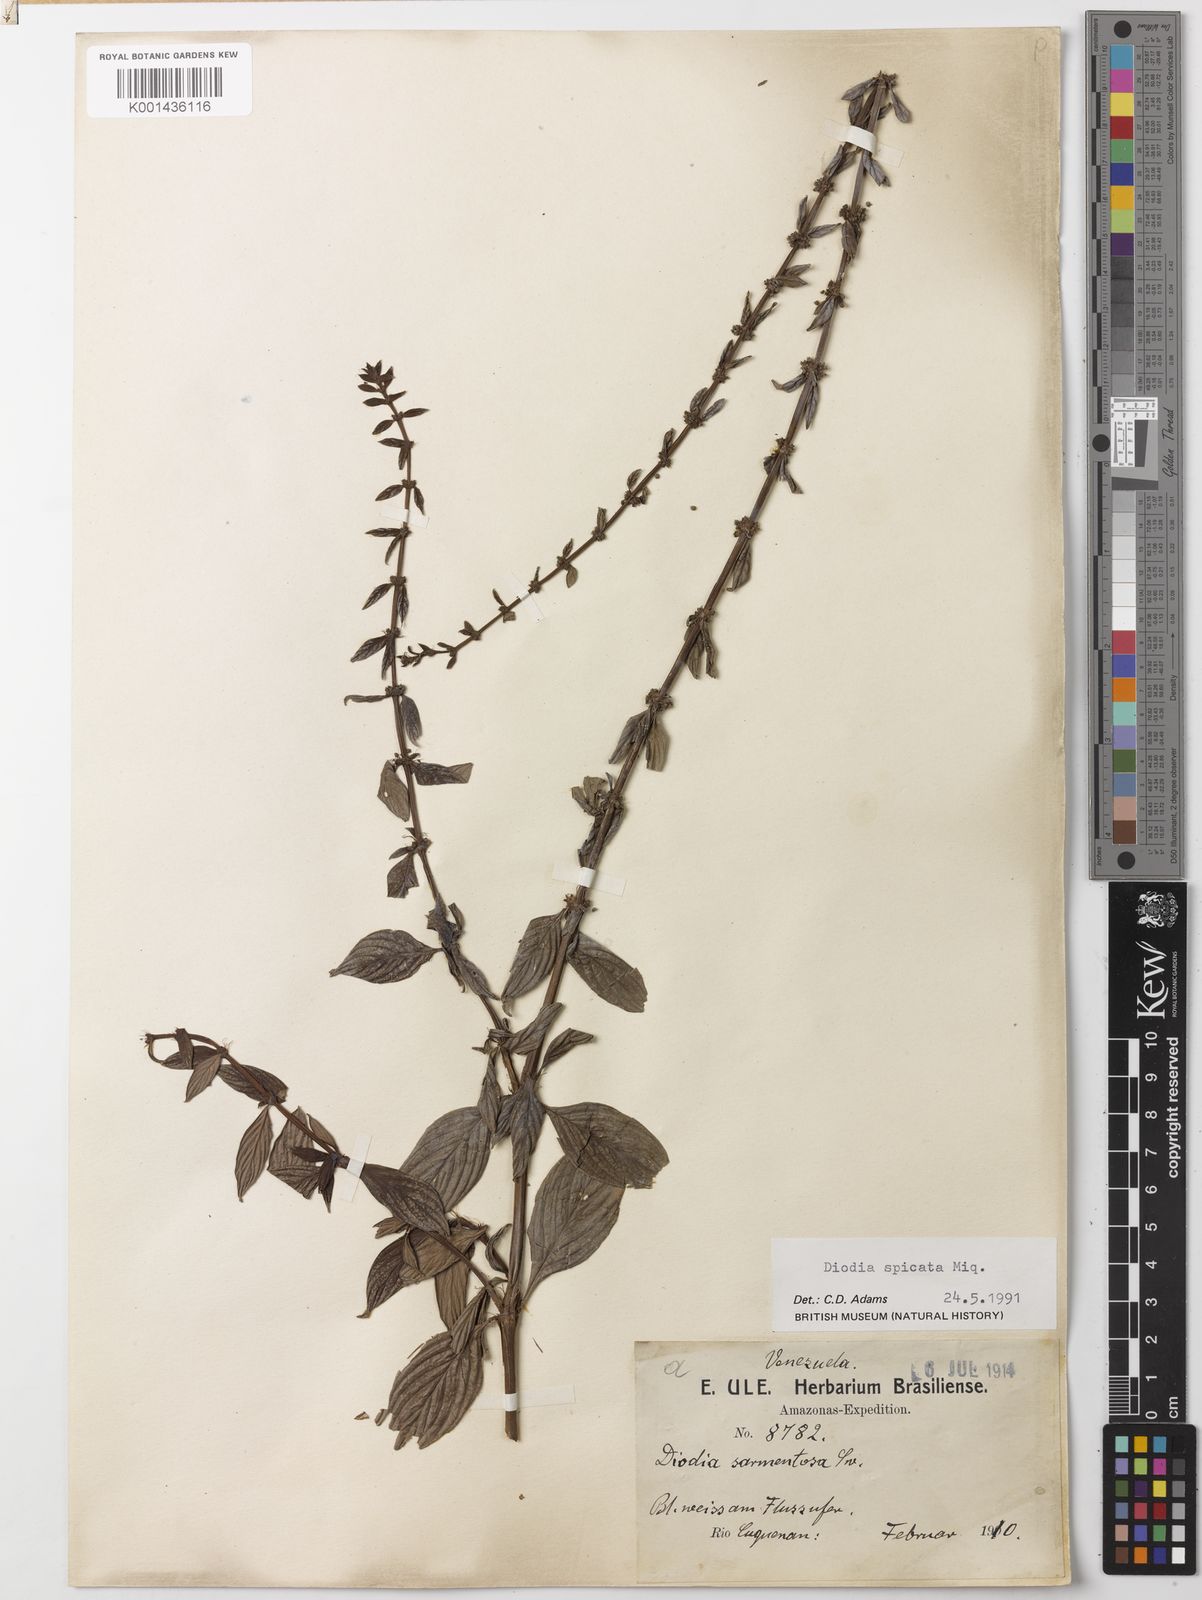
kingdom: Plantae
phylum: Tracheophyta
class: Magnoliopsida
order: Gentianales
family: Rubiaceae
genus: Galianthe
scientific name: Galianthe spicata
